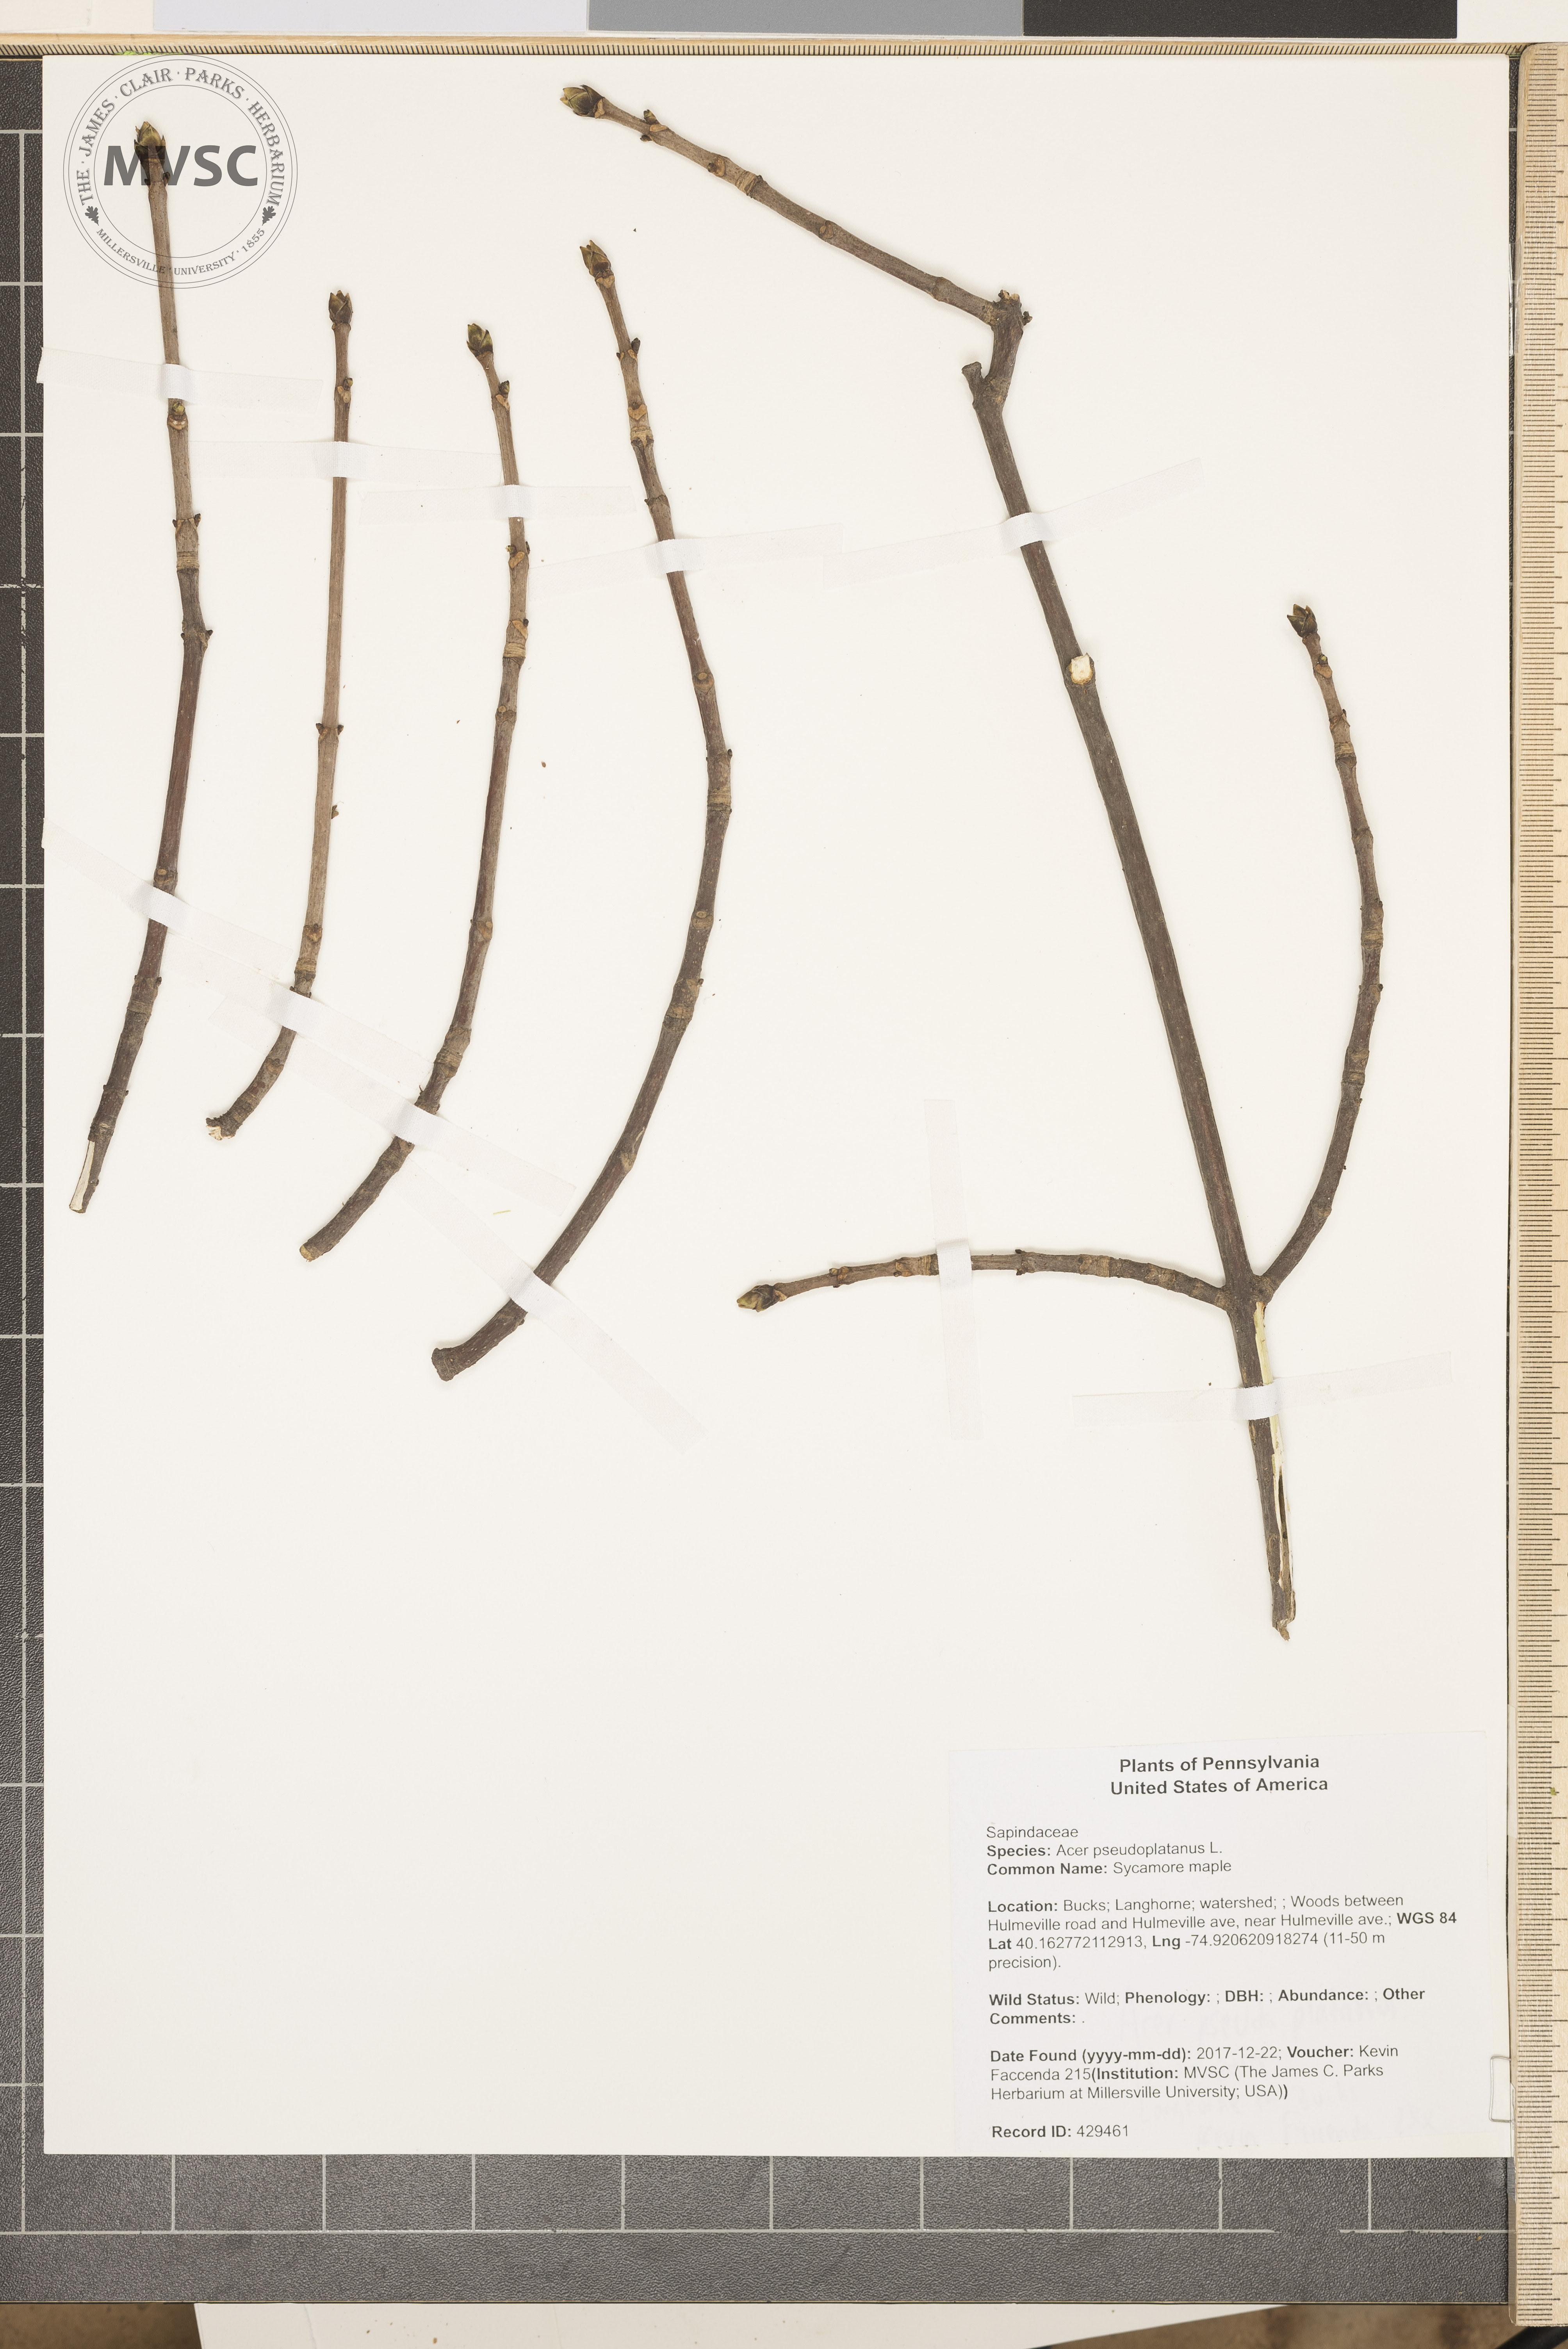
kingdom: Plantae
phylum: Tracheophyta
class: Magnoliopsida
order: Sapindales
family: Sapindaceae
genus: Acer
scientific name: Acer pseudoplatanus
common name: Sycamore maple
